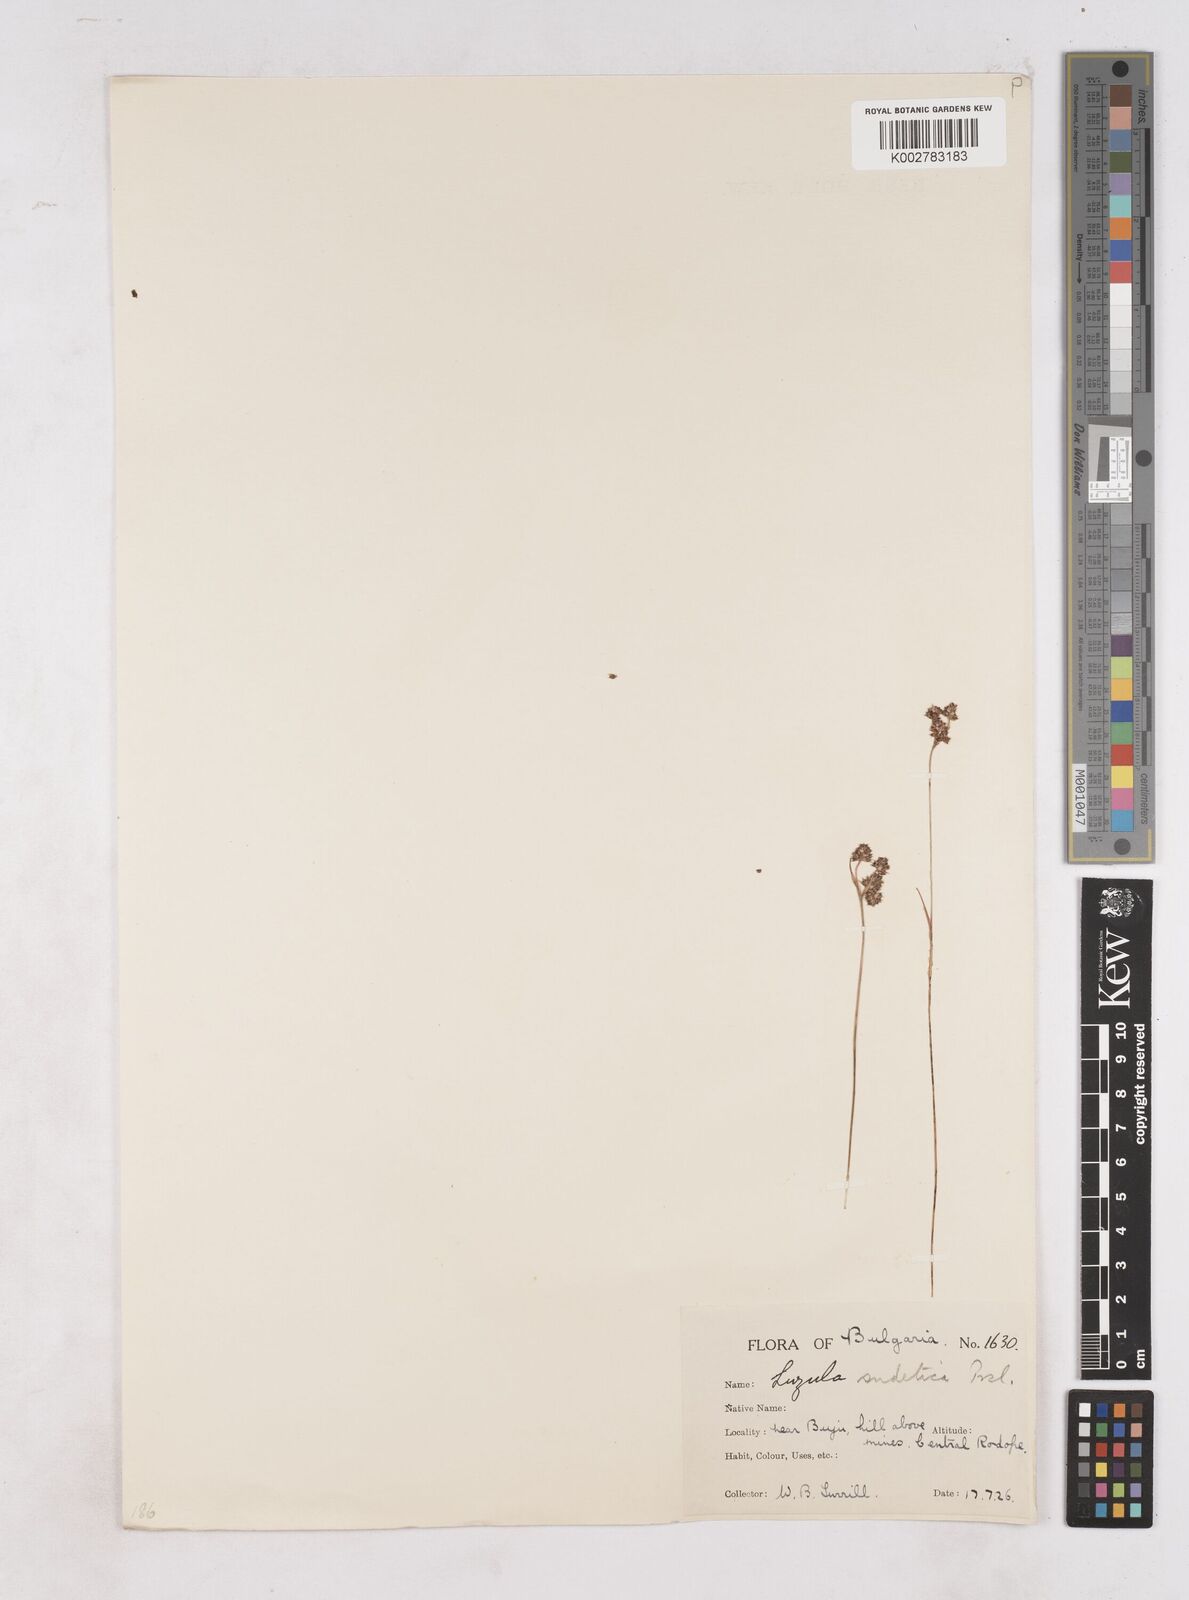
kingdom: Plantae
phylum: Tracheophyta
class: Liliopsida
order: Poales
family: Juncaceae
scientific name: Juncaceae
